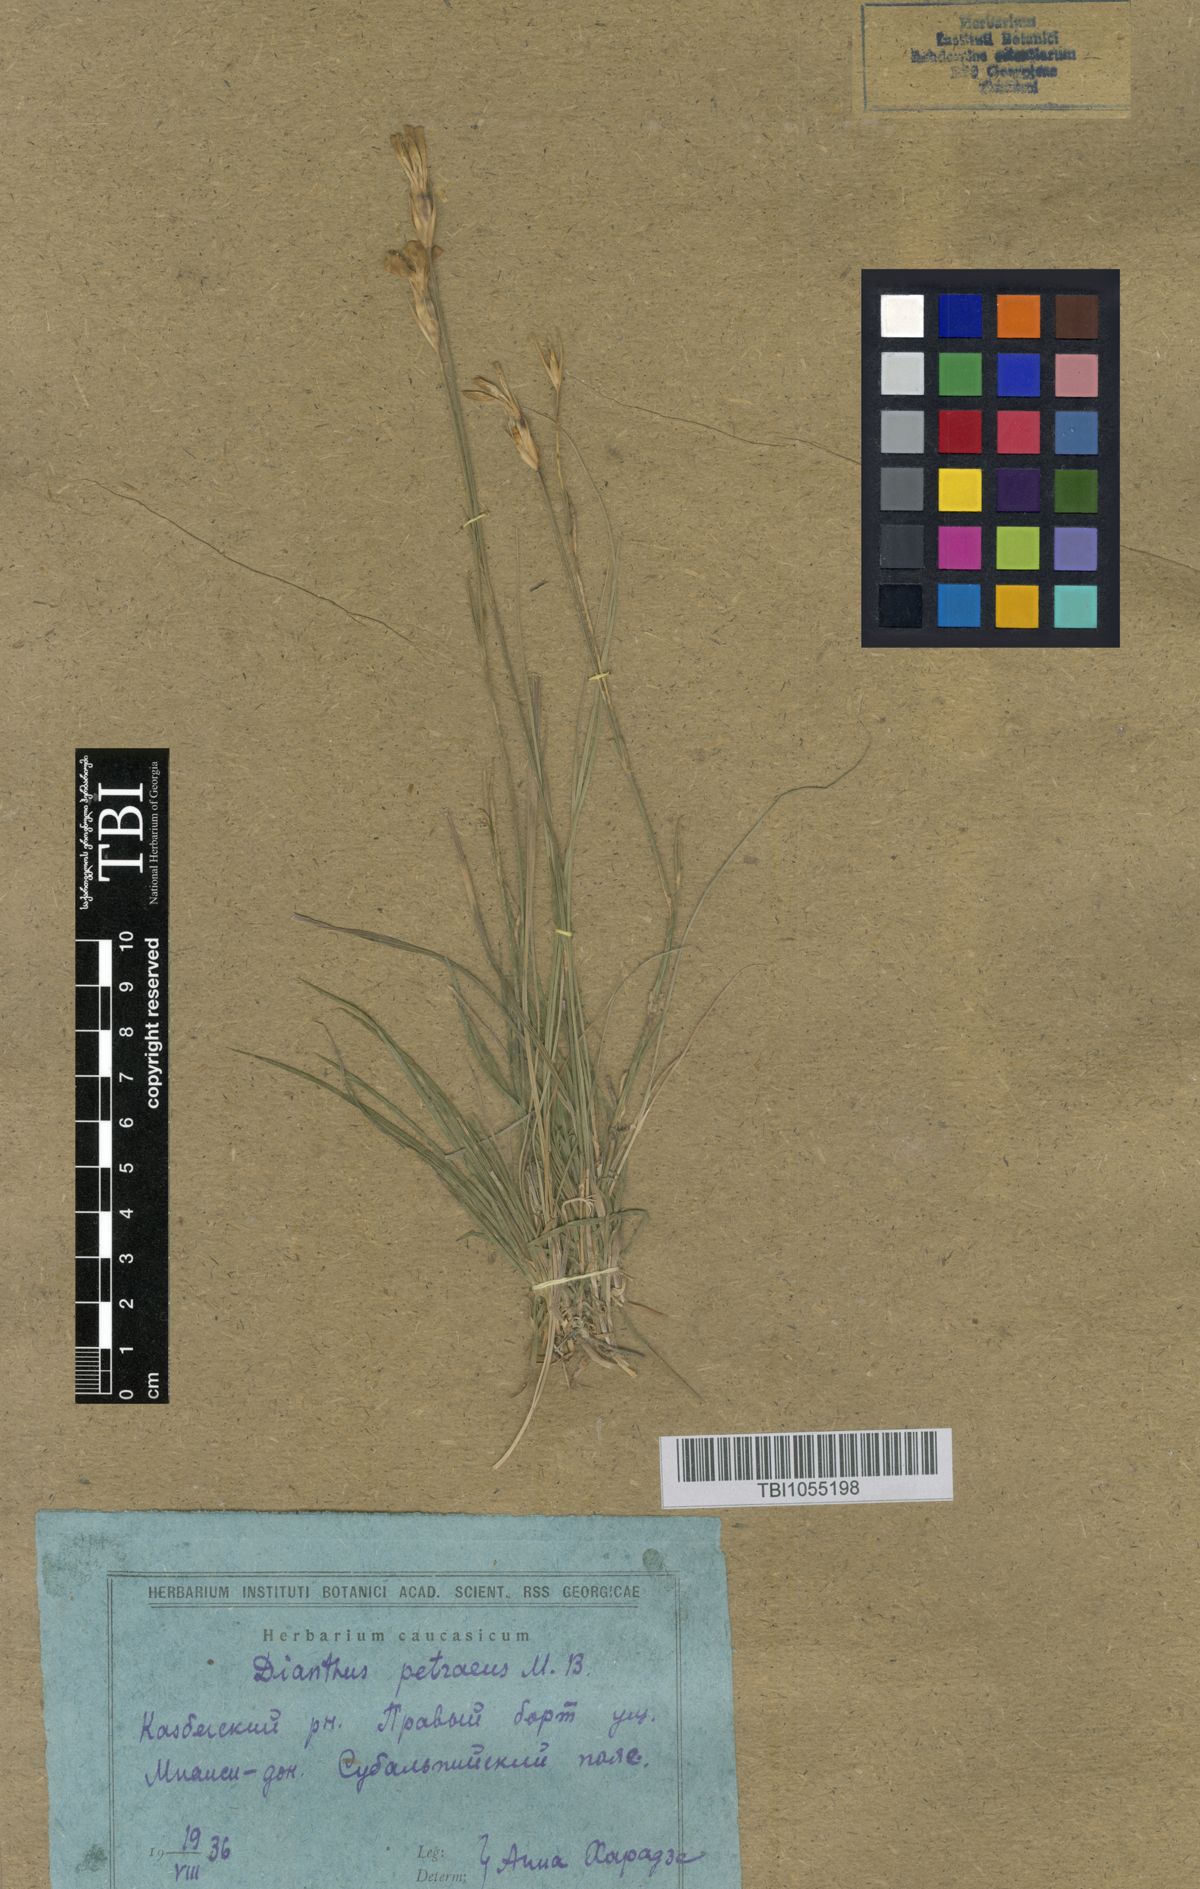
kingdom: Plantae
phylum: Tracheophyta
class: Magnoliopsida
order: Caryophyllales
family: Caryophyllaceae
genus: Dianthus
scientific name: Dianthus cretaceus
